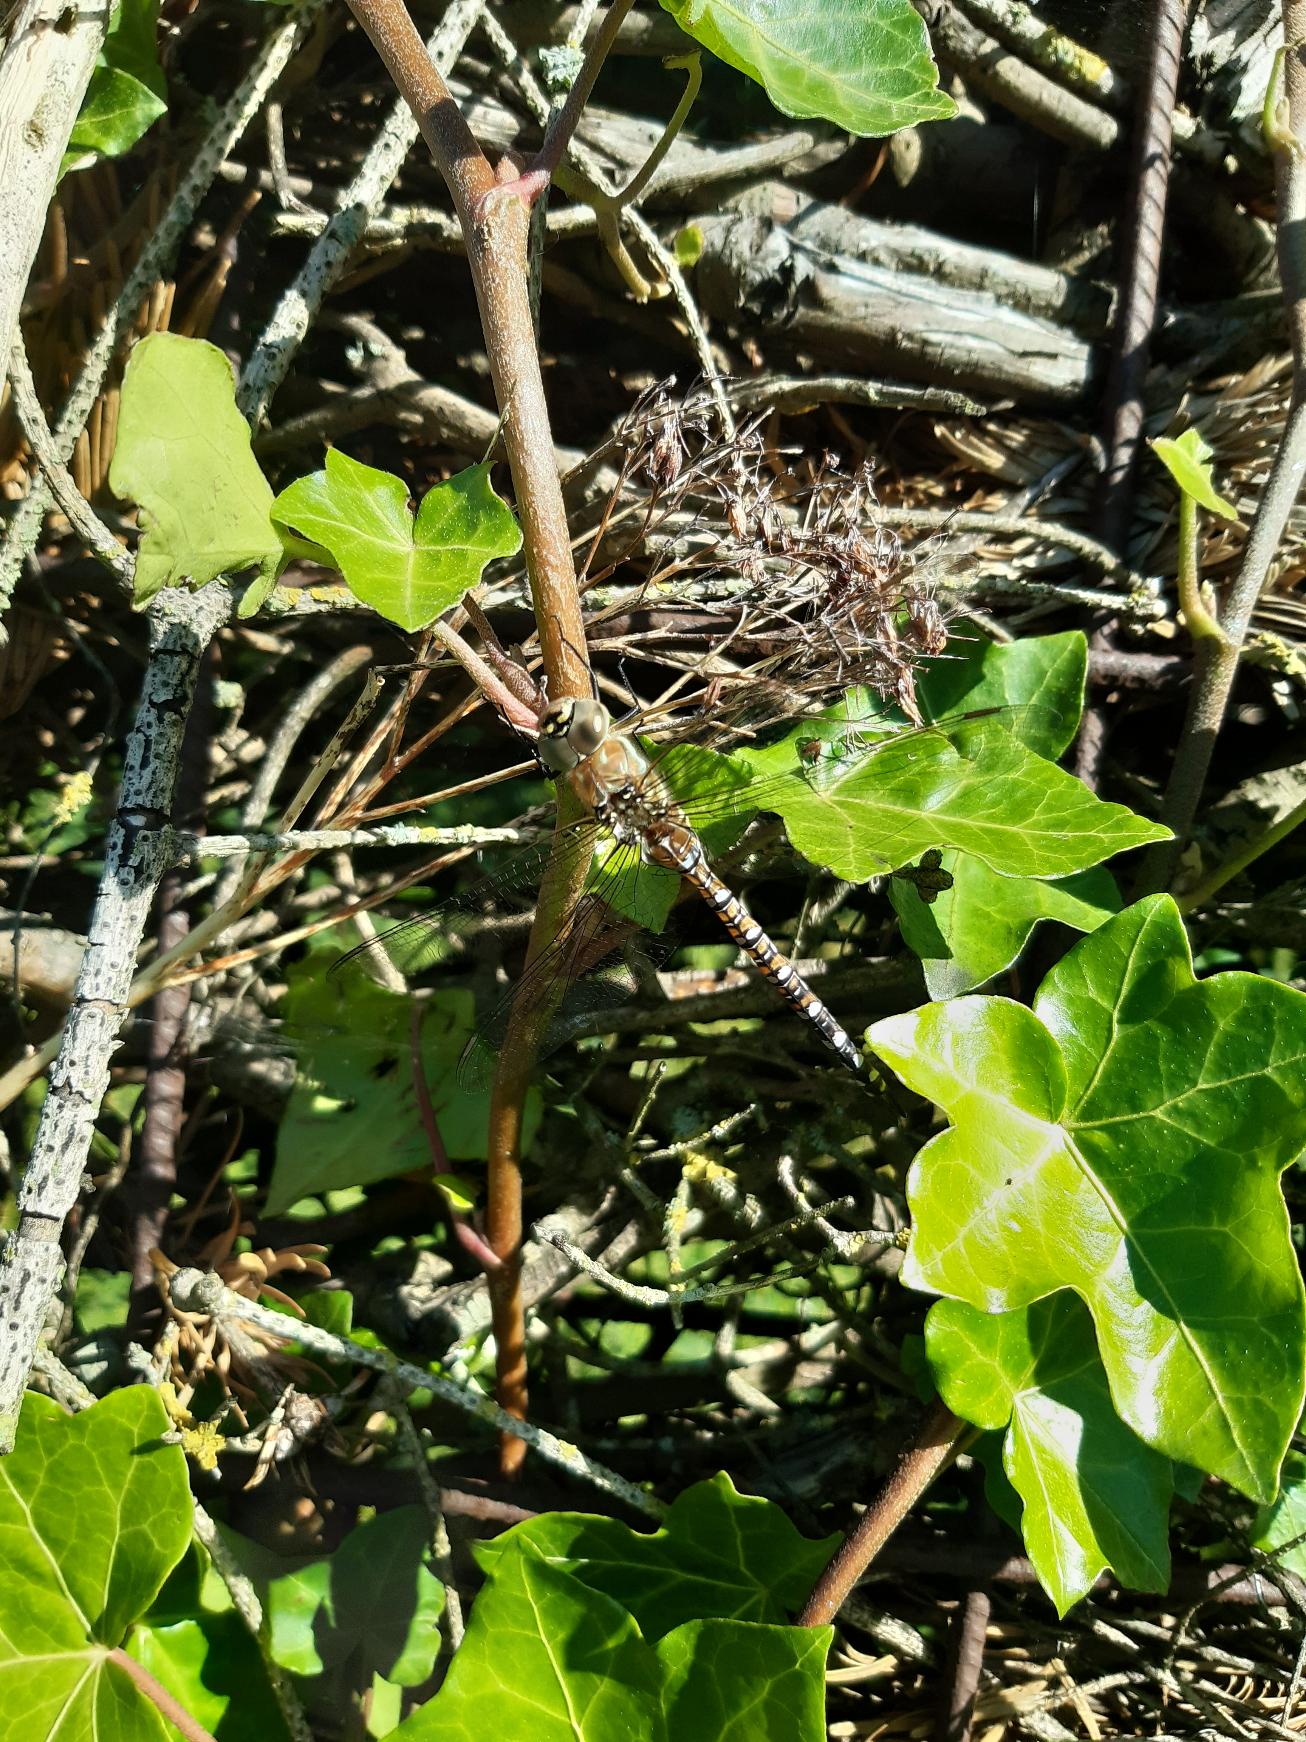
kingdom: Animalia
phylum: Arthropoda
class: Insecta
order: Odonata
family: Aeshnidae
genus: Aeshna
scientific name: Aeshna mixta
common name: Efterårs-mosaikguldsmed
